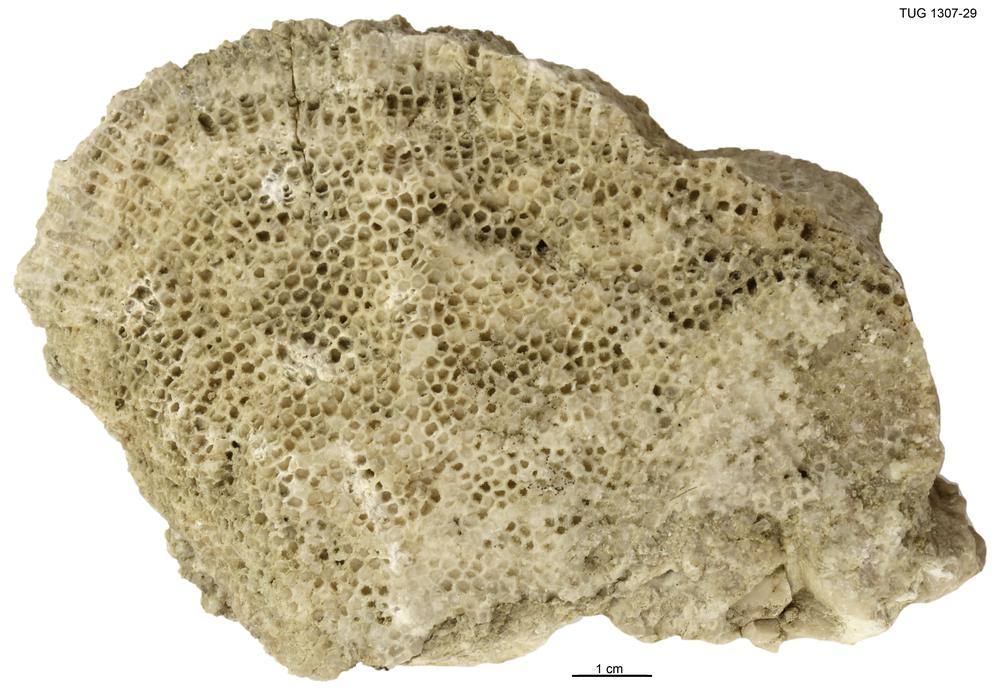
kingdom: Animalia
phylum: Cnidaria
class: Anthozoa
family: Syringophyllidae
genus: Lyopora
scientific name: Lyopora
